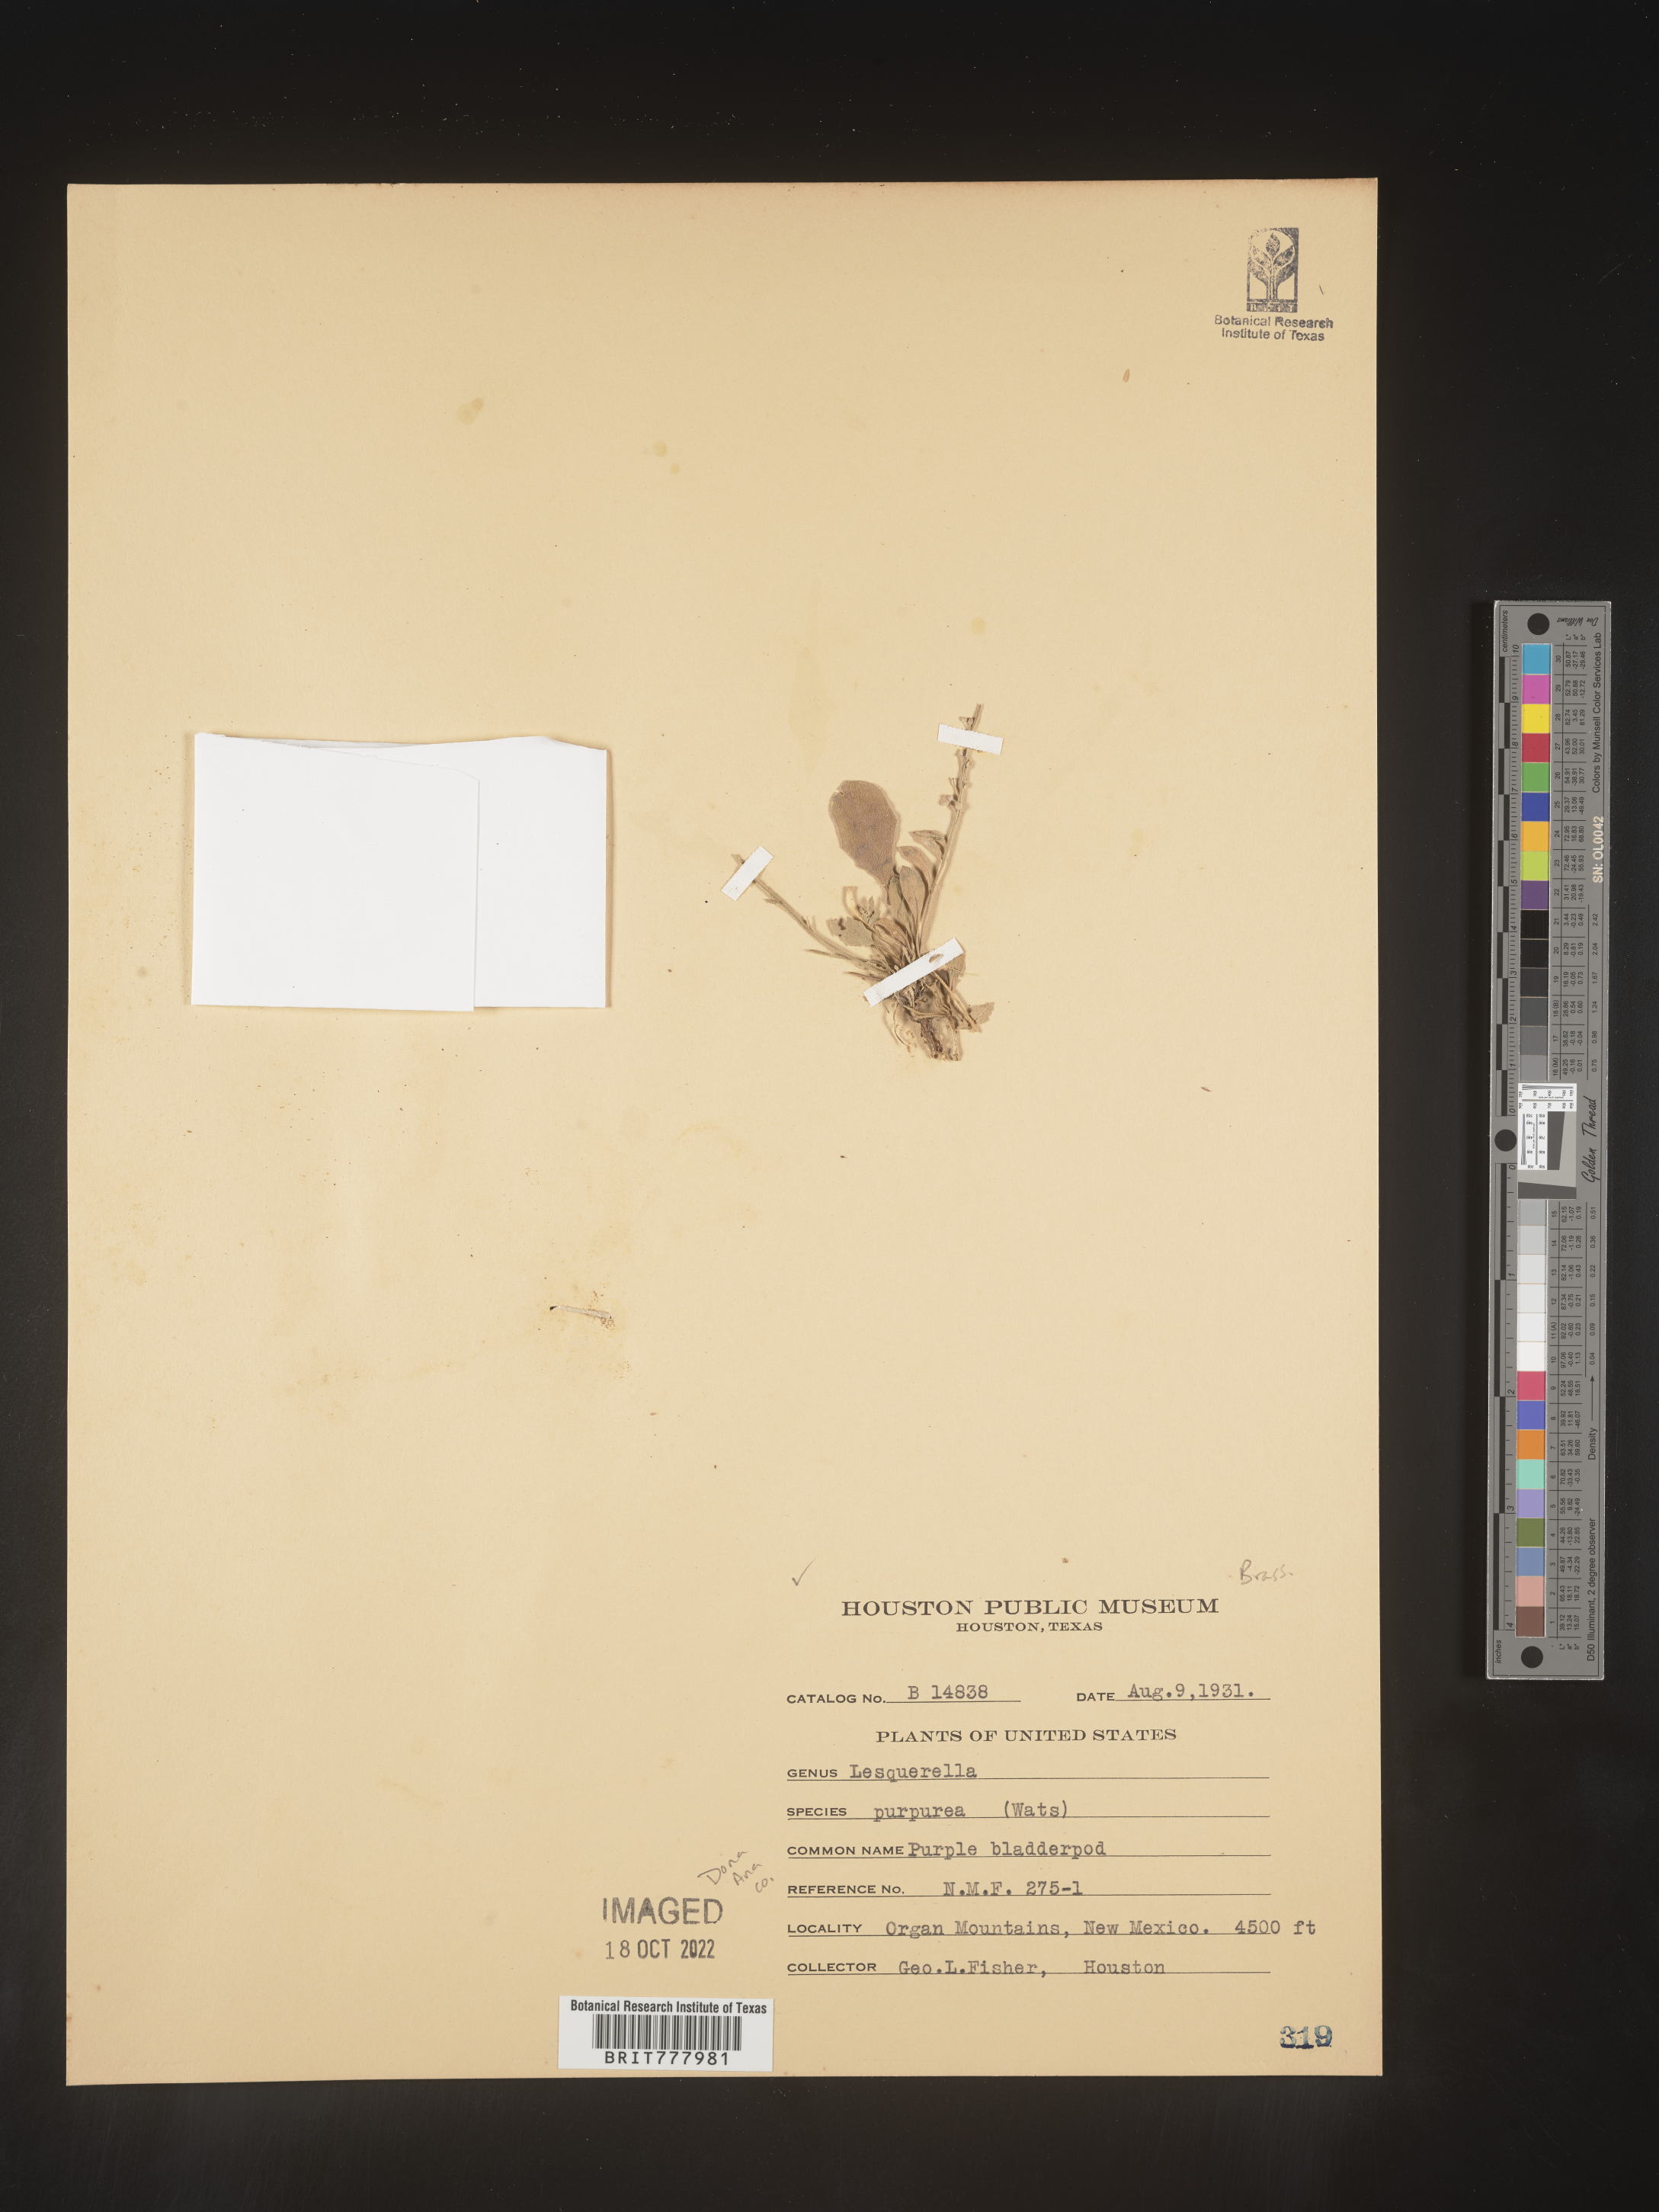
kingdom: Chromista
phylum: Cercozoa
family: Psammonobiotidae
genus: Lesquerella
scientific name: Lesquerella
